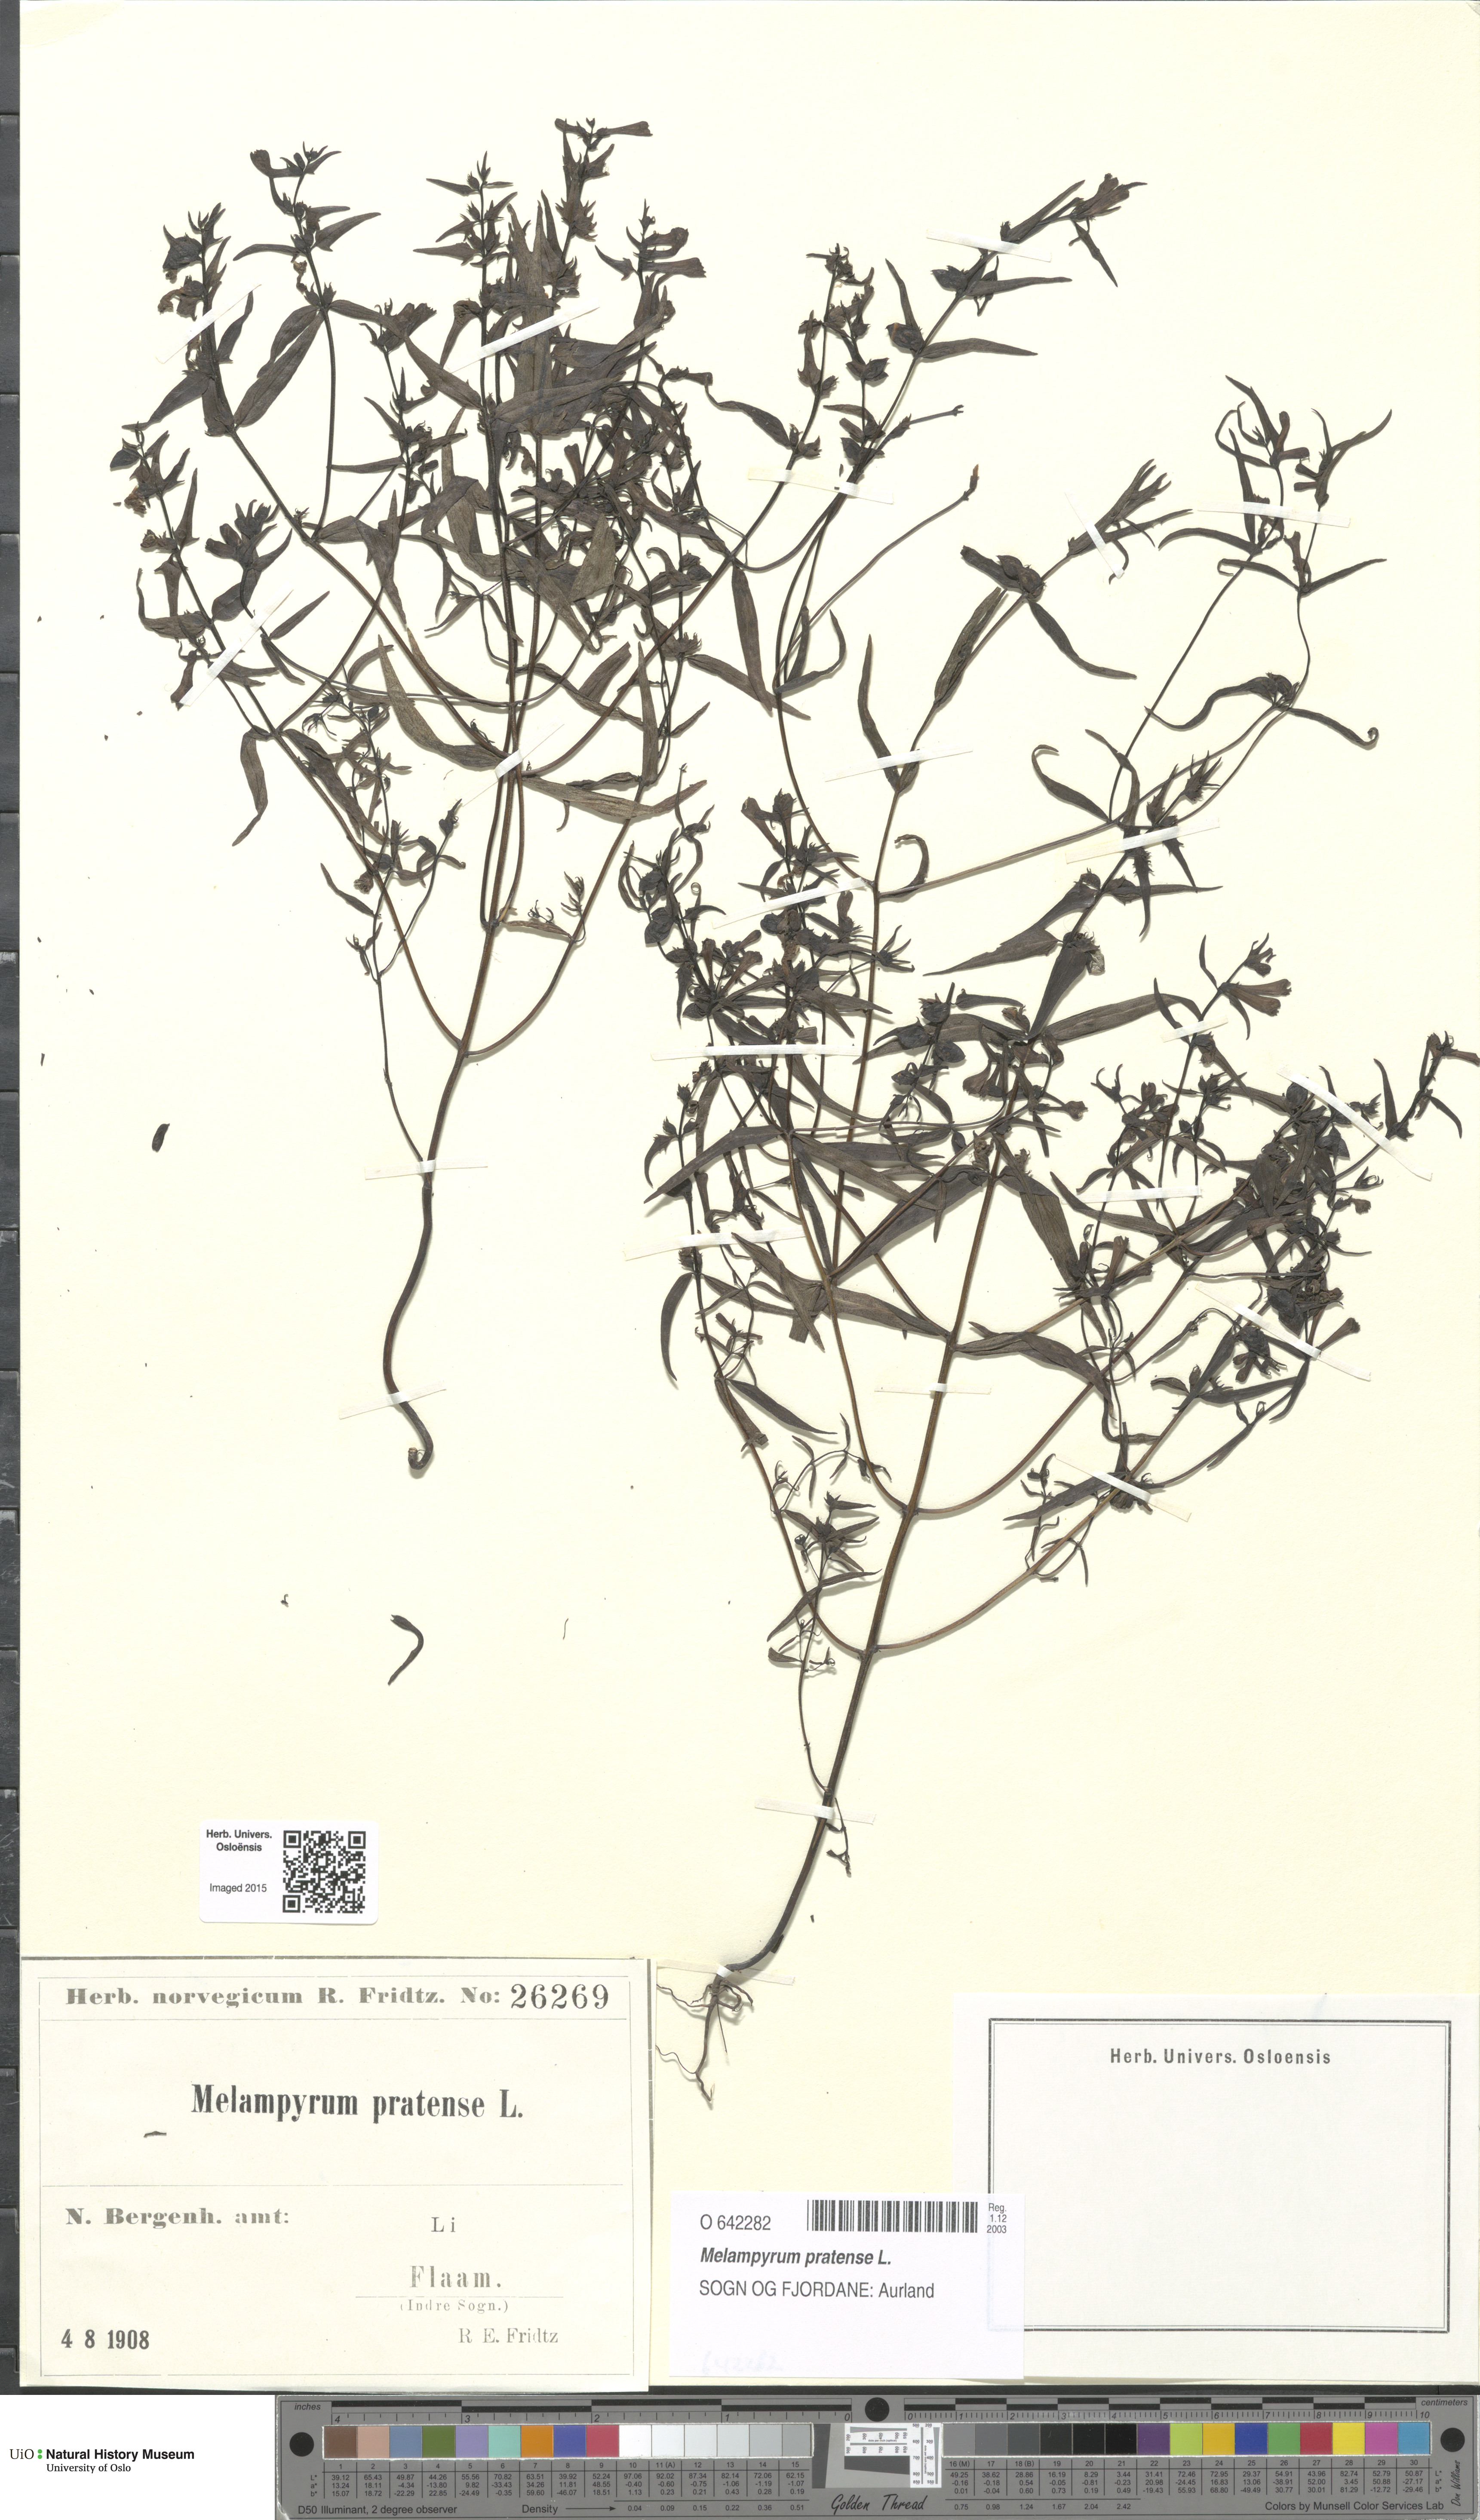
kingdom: Plantae
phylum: Tracheophyta
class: Magnoliopsida
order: Lamiales
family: Orobanchaceae
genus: Melampyrum
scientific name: Melampyrum pratense
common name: Common cow-wheat
